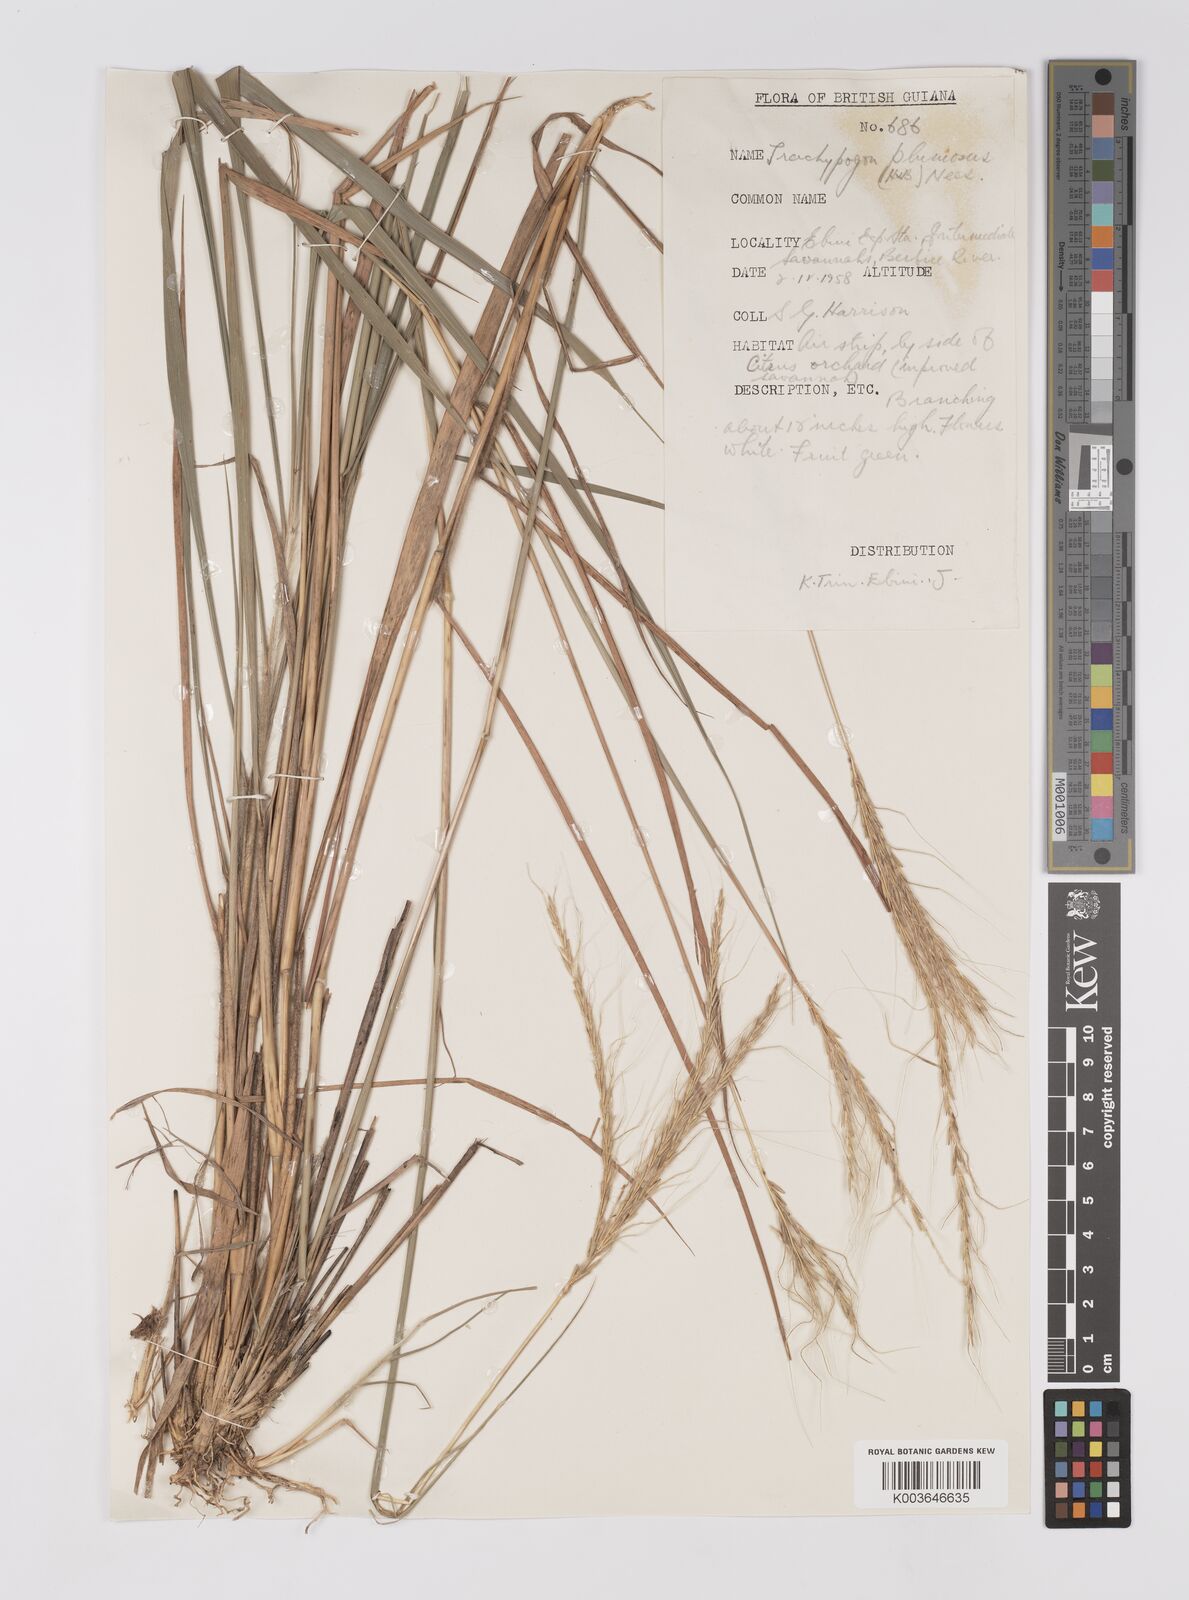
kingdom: Plantae
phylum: Tracheophyta
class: Liliopsida
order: Poales
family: Poaceae
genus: Trachypogon
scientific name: Trachypogon spicatus
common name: Crinkle-awn
